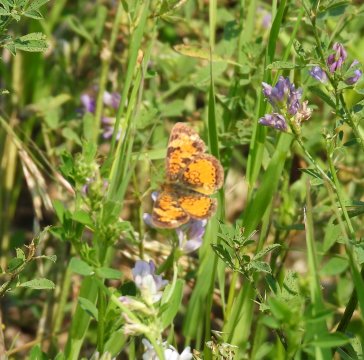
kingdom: Animalia
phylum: Arthropoda
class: Insecta
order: Lepidoptera
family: Nymphalidae
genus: Phyciodes
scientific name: Phyciodes tharos
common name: Northern Crescent
